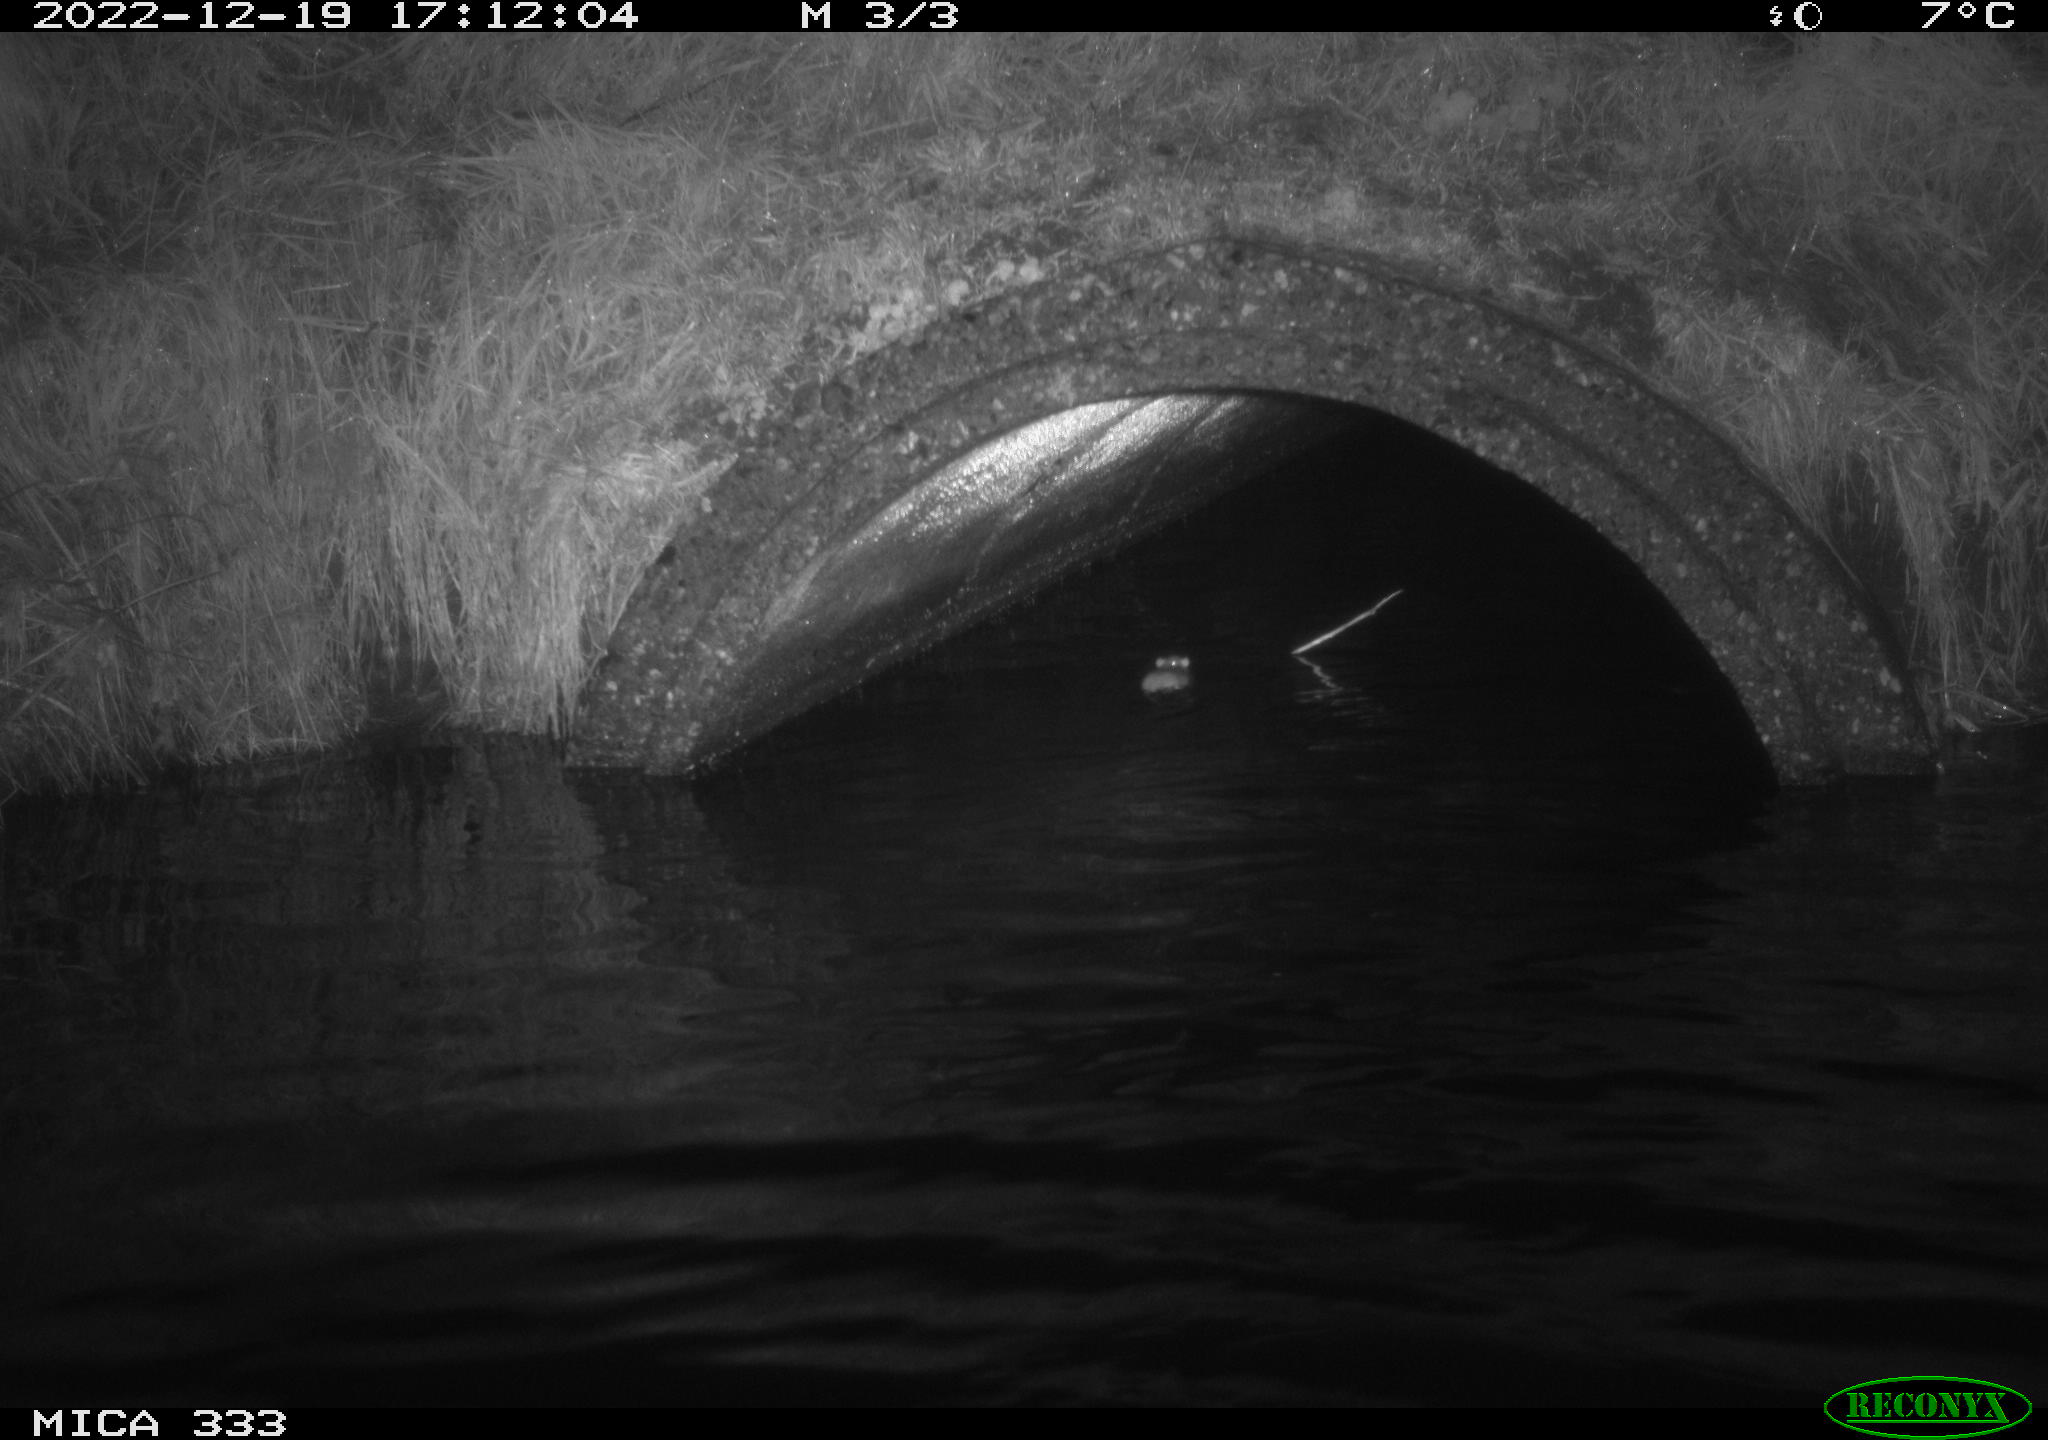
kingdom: Animalia
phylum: Chordata
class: Mammalia
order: Rodentia
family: Muridae
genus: Rattus
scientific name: Rattus norvegicus
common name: Brown rat
